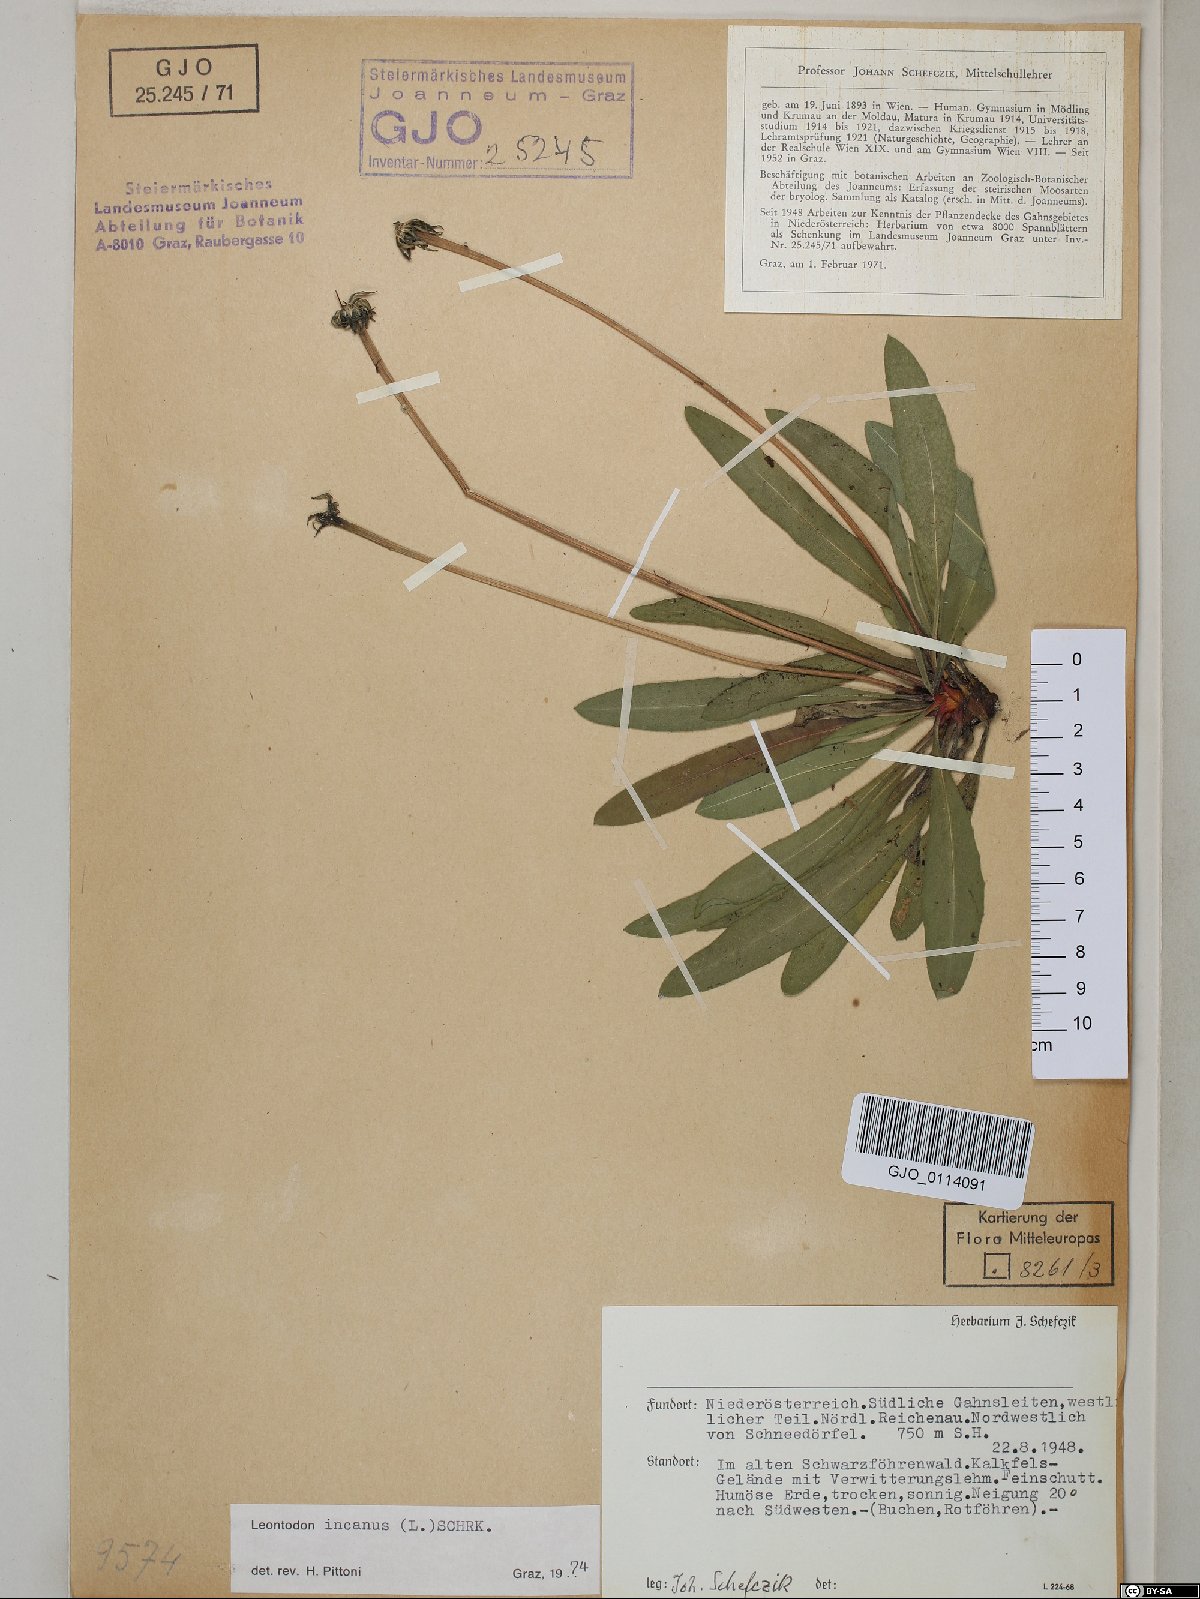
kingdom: Plantae
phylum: Tracheophyta
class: Magnoliopsida
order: Asterales
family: Asteraceae
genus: Leontodon
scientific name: Leontodon incanus
